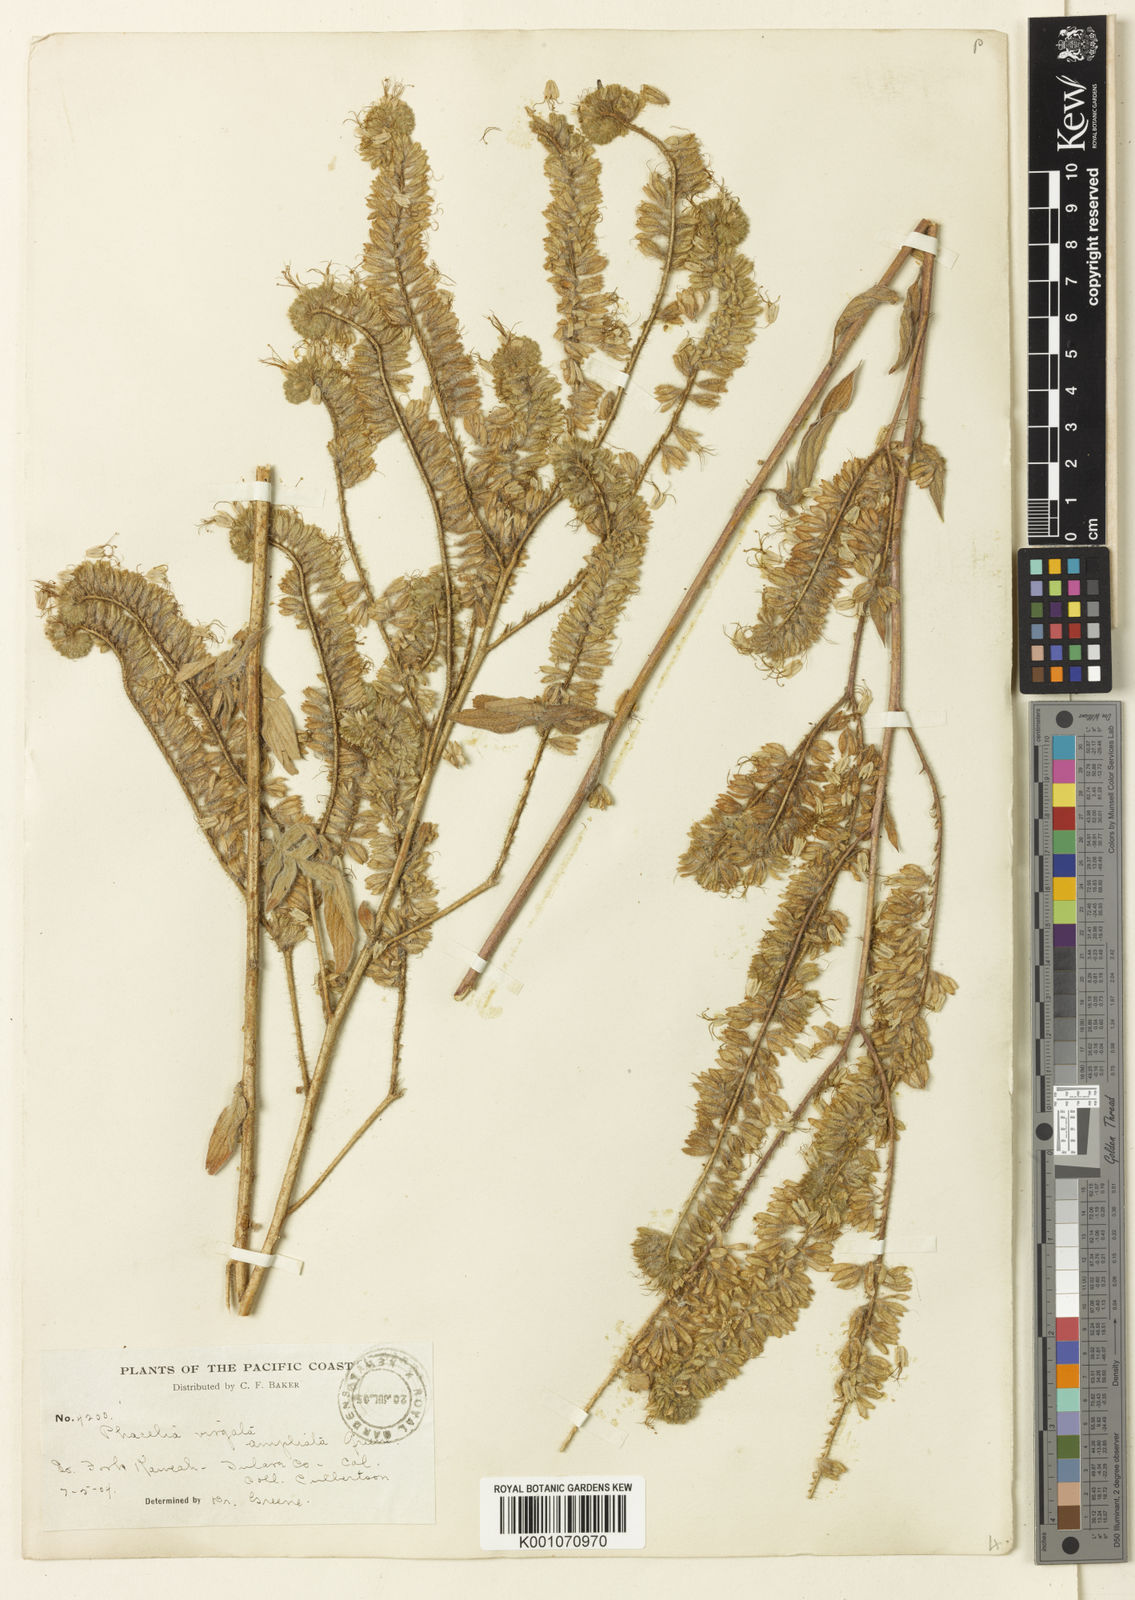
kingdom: Plantae
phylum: Tracheophyta
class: Magnoliopsida
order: Boraginales
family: Hydrophyllaceae
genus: Phacelia
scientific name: Phacelia heterophylla
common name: Variable-leaved phacelia
